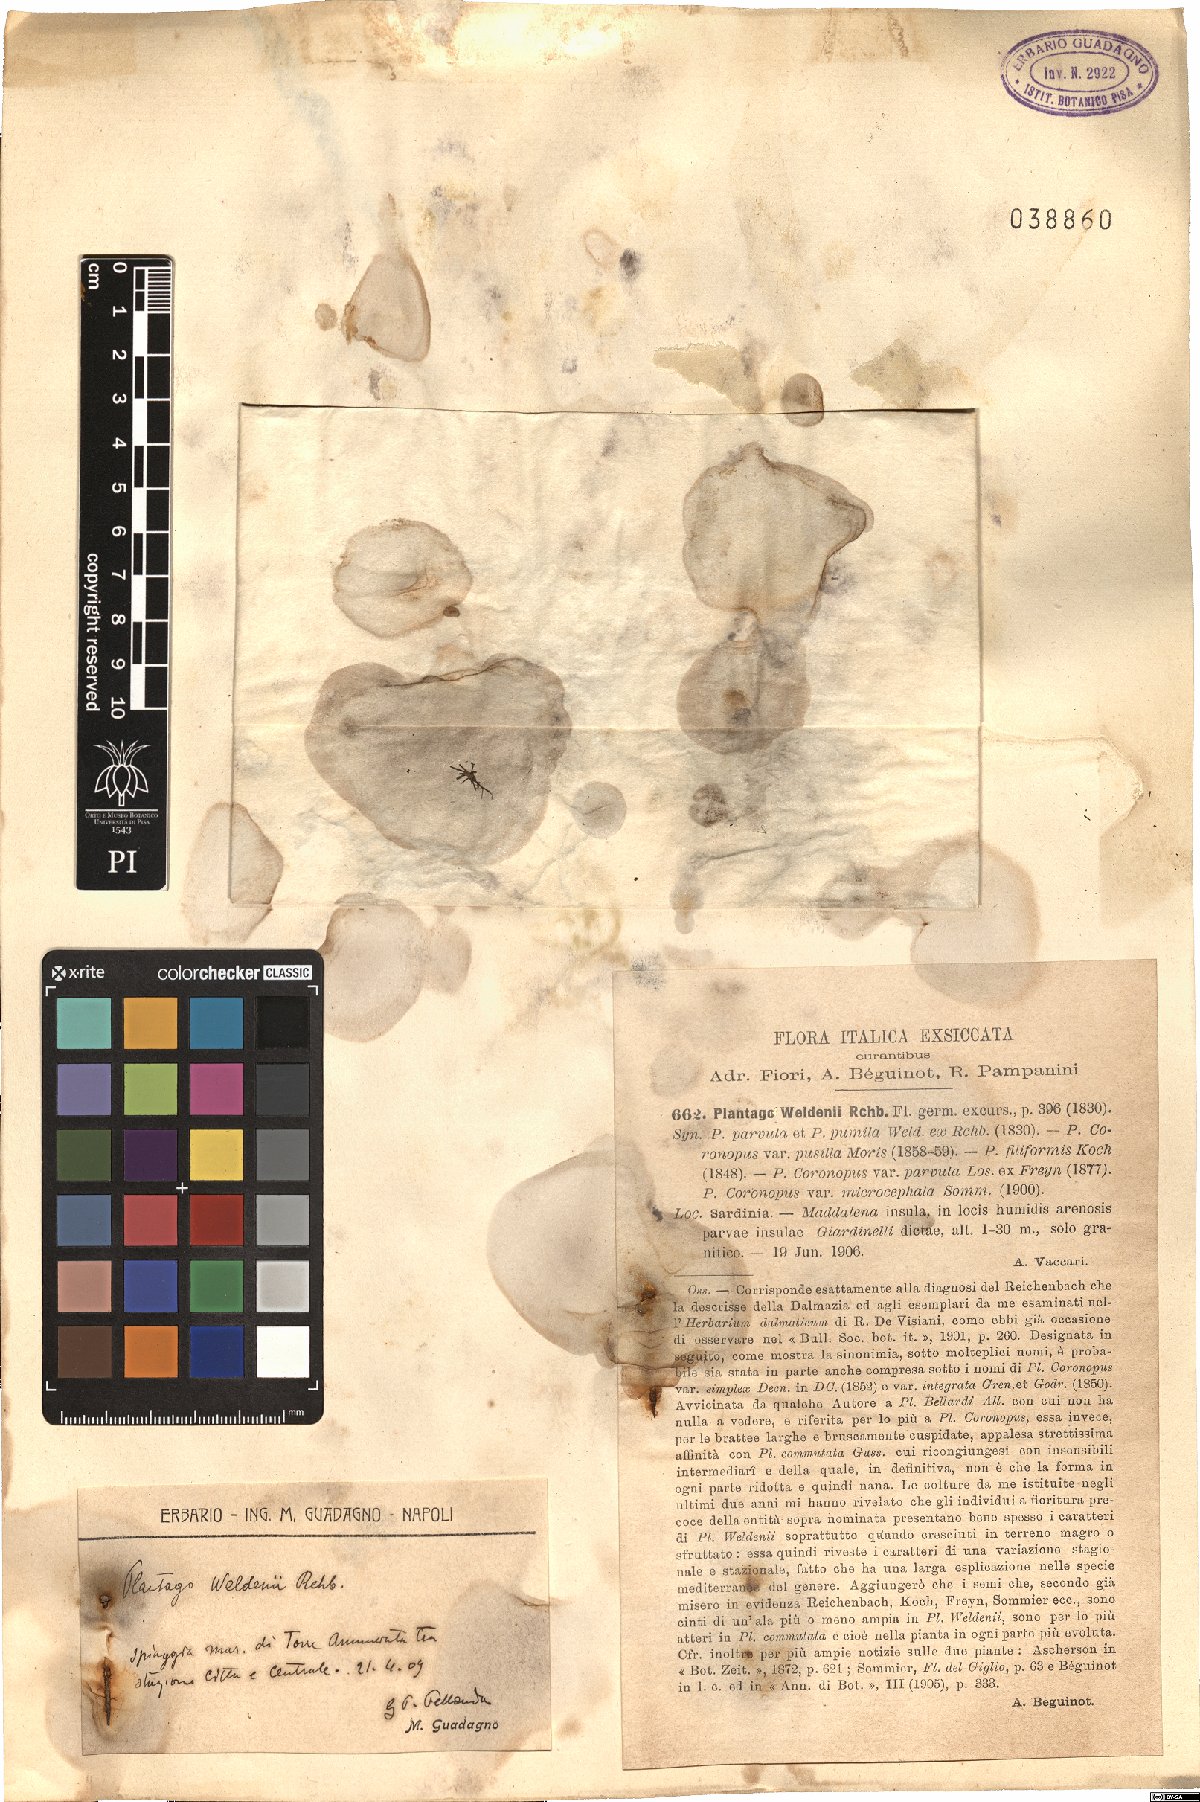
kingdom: Plantae
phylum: Tracheophyta
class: Magnoliopsida
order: Lamiales
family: Plantaginaceae
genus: Plantago
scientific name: Plantago weldenii
